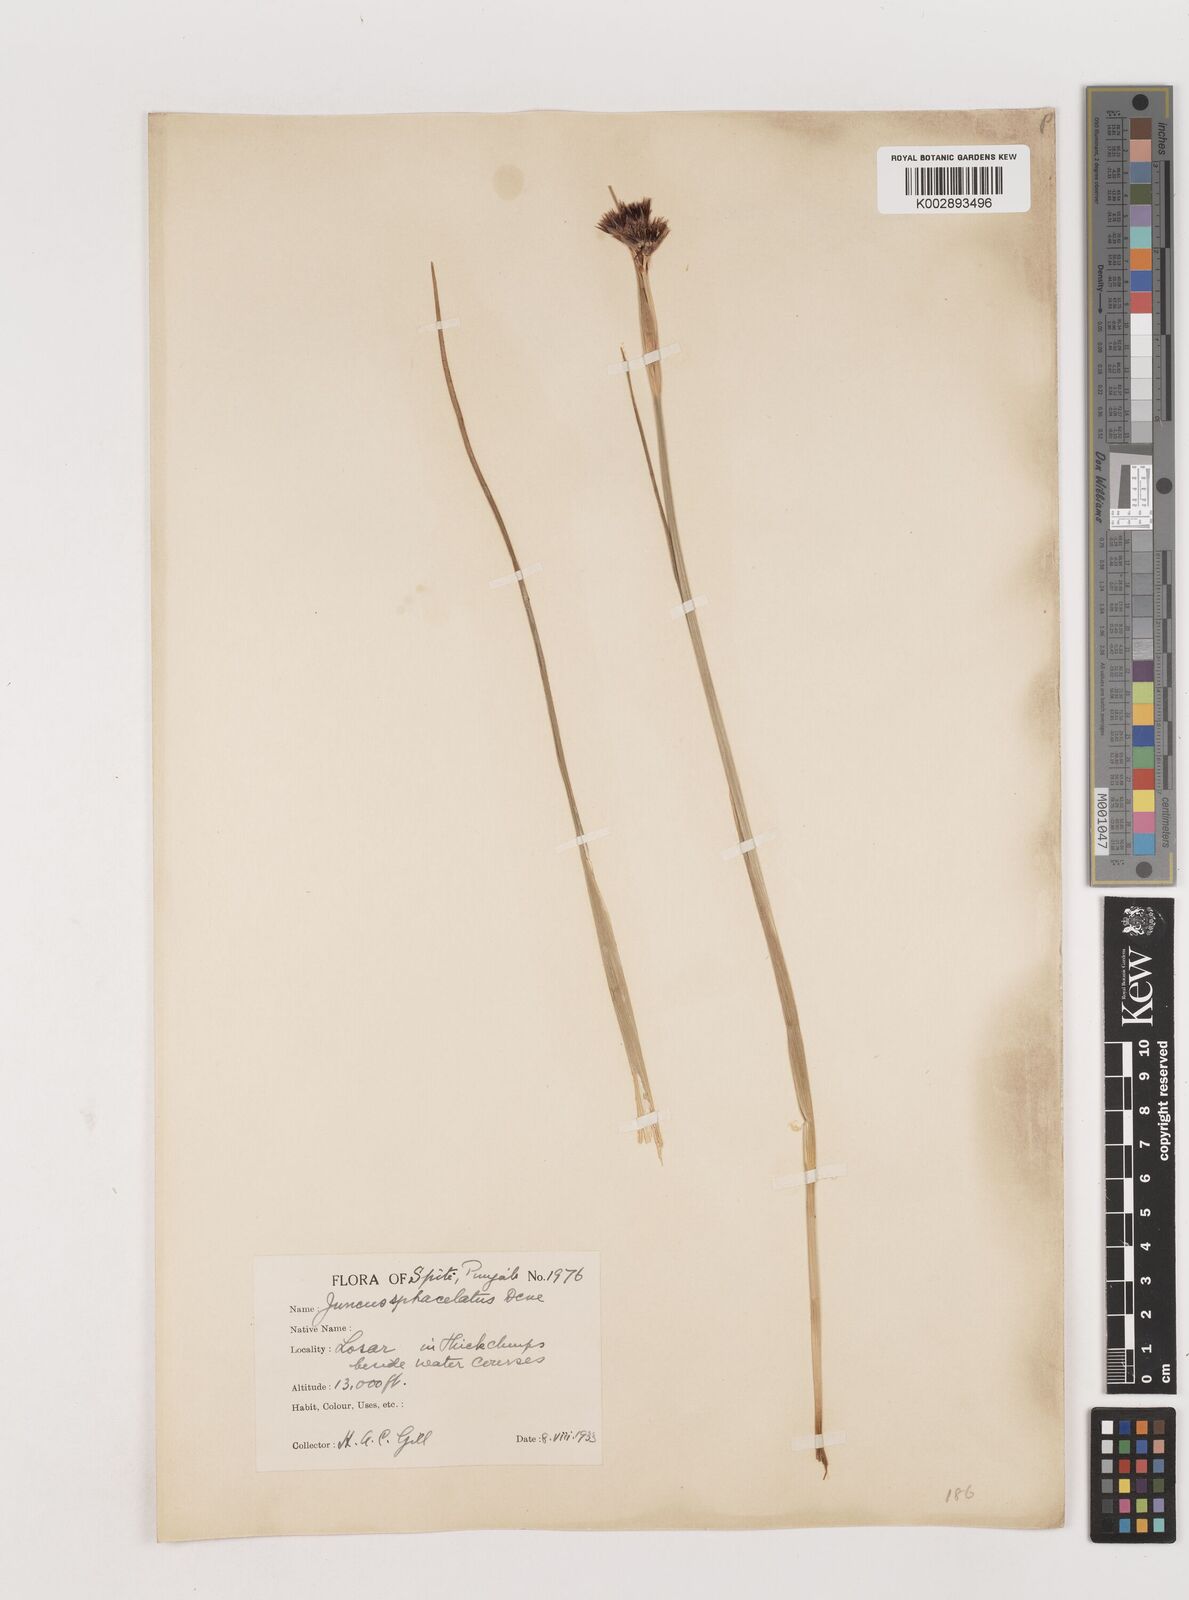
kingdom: Plantae
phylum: Tracheophyta
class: Liliopsida
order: Poales
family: Juncaceae
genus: Juncus
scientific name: Juncus sphacelatus
